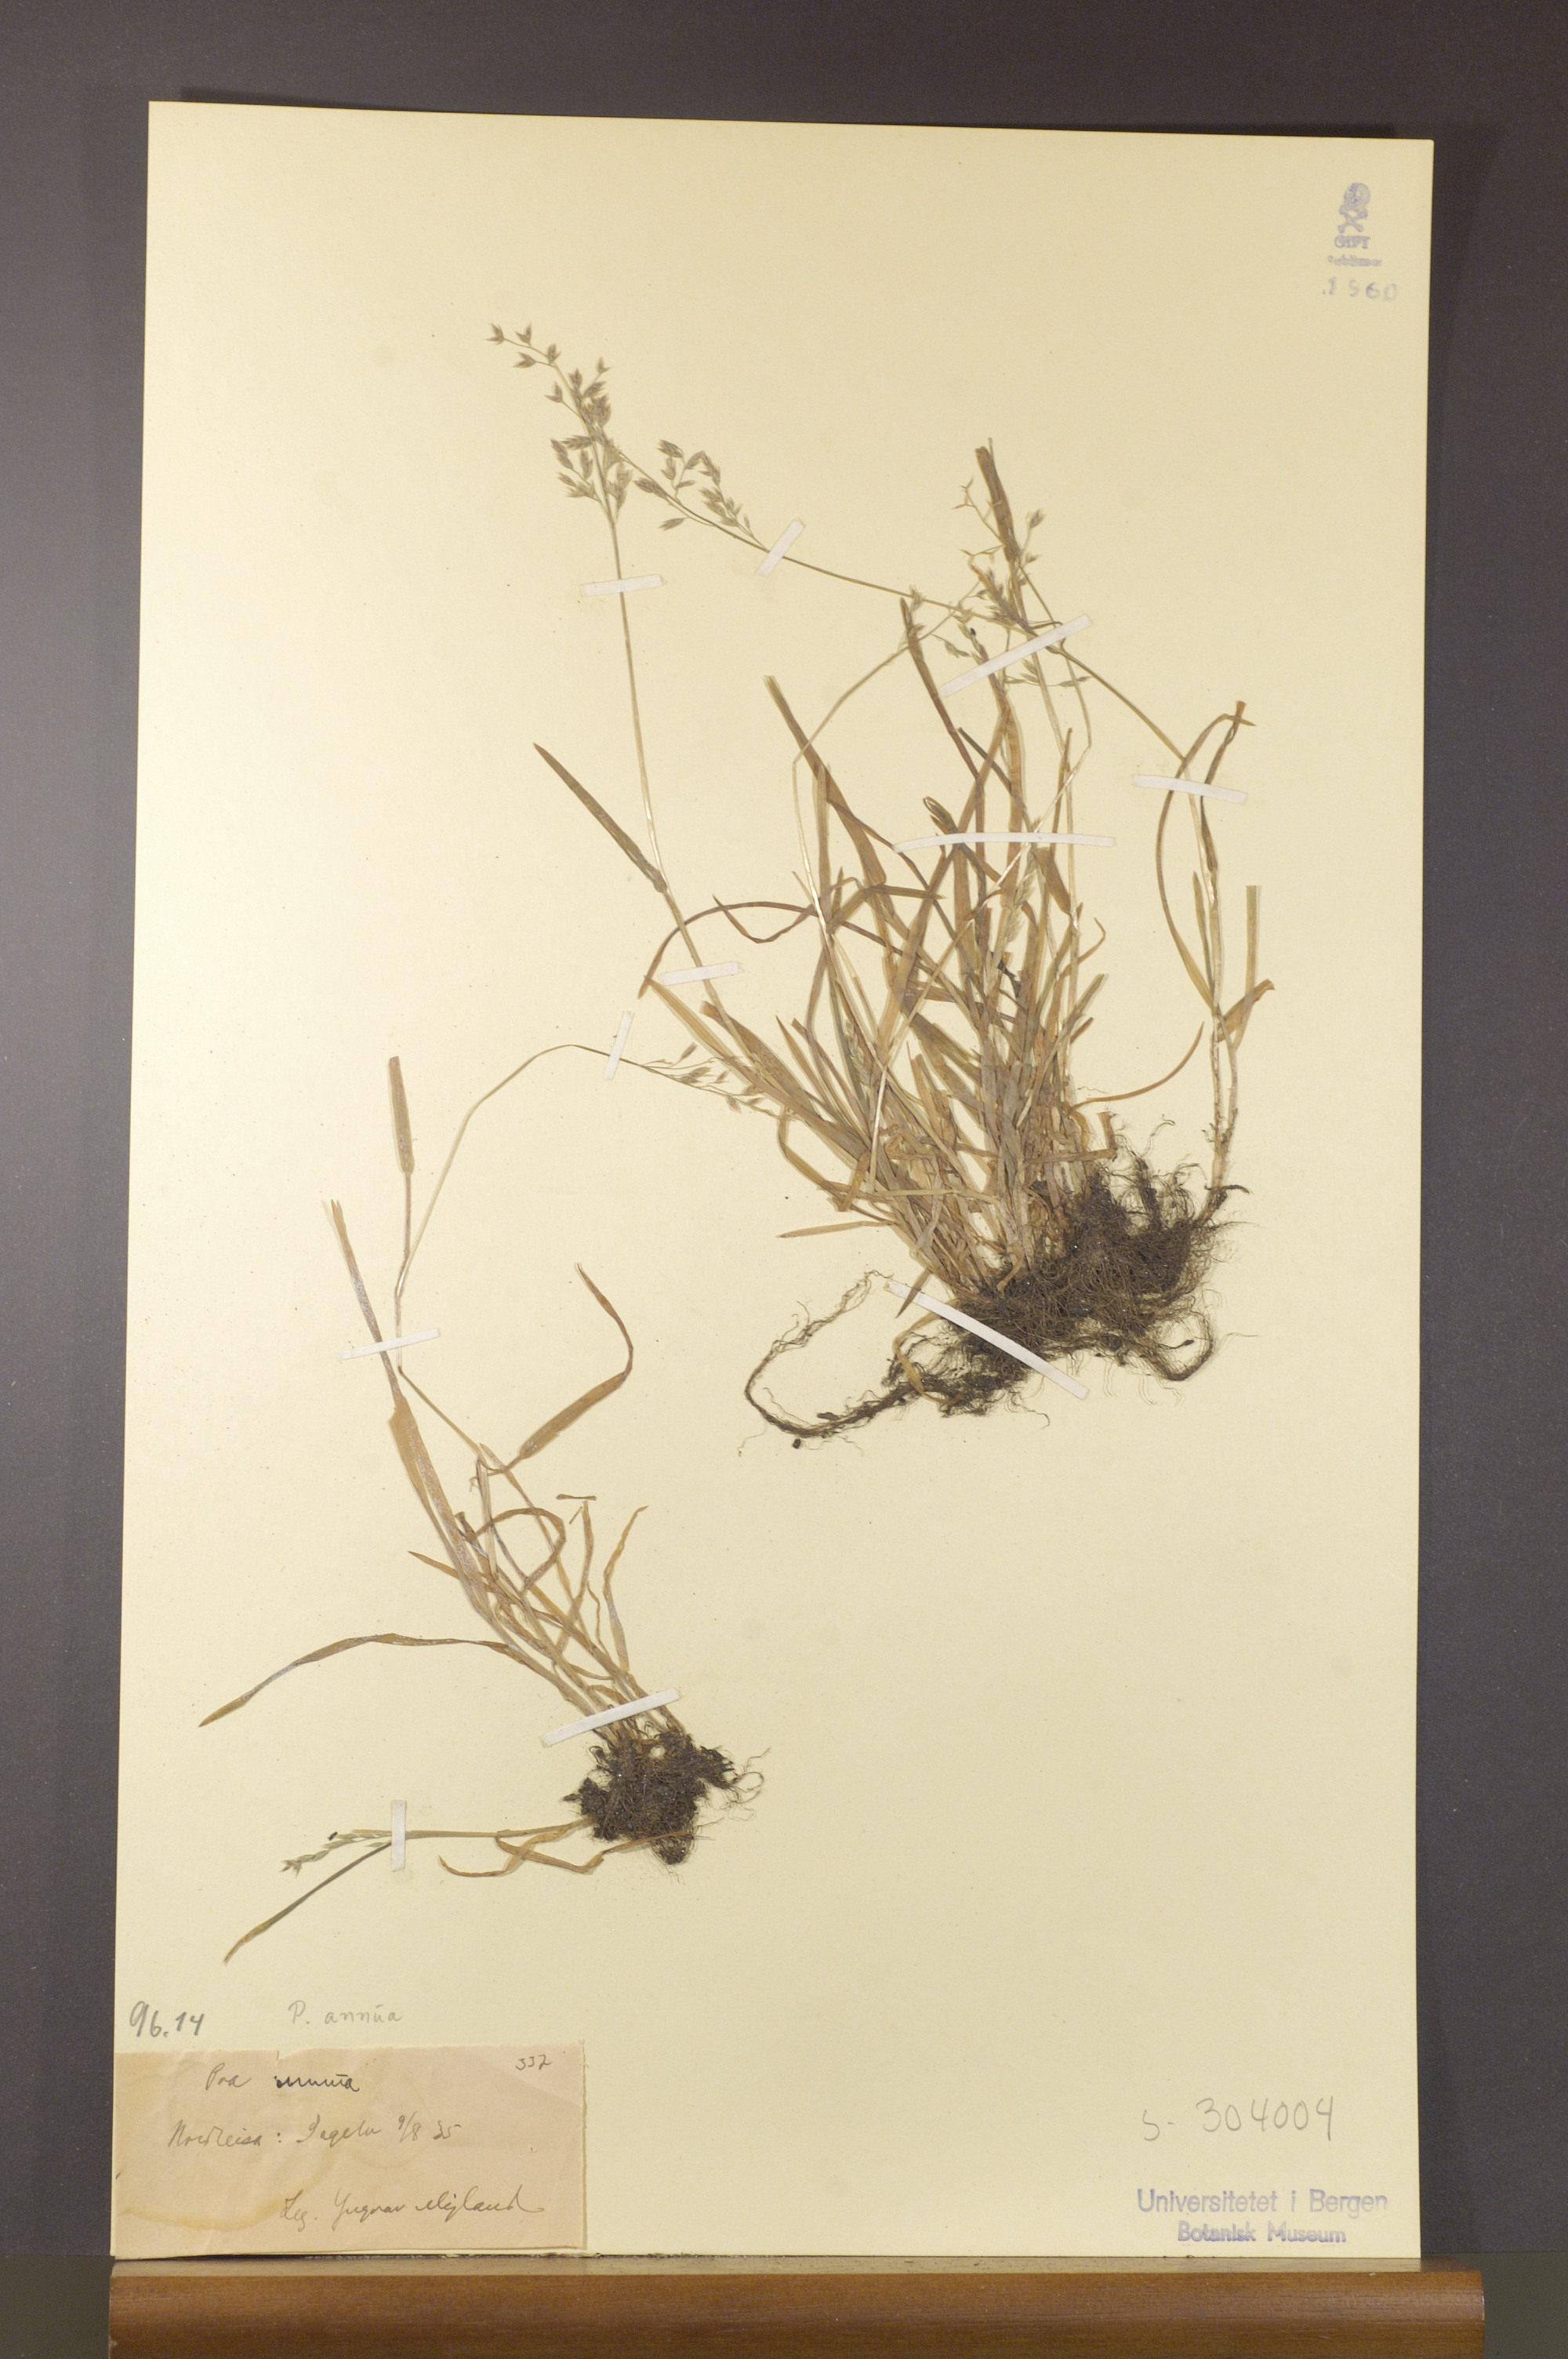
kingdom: Plantae
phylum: Tracheophyta
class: Liliopsida
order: Poales
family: Poaceae
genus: Poa
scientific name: Poa annua
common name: Annual bluegrass
